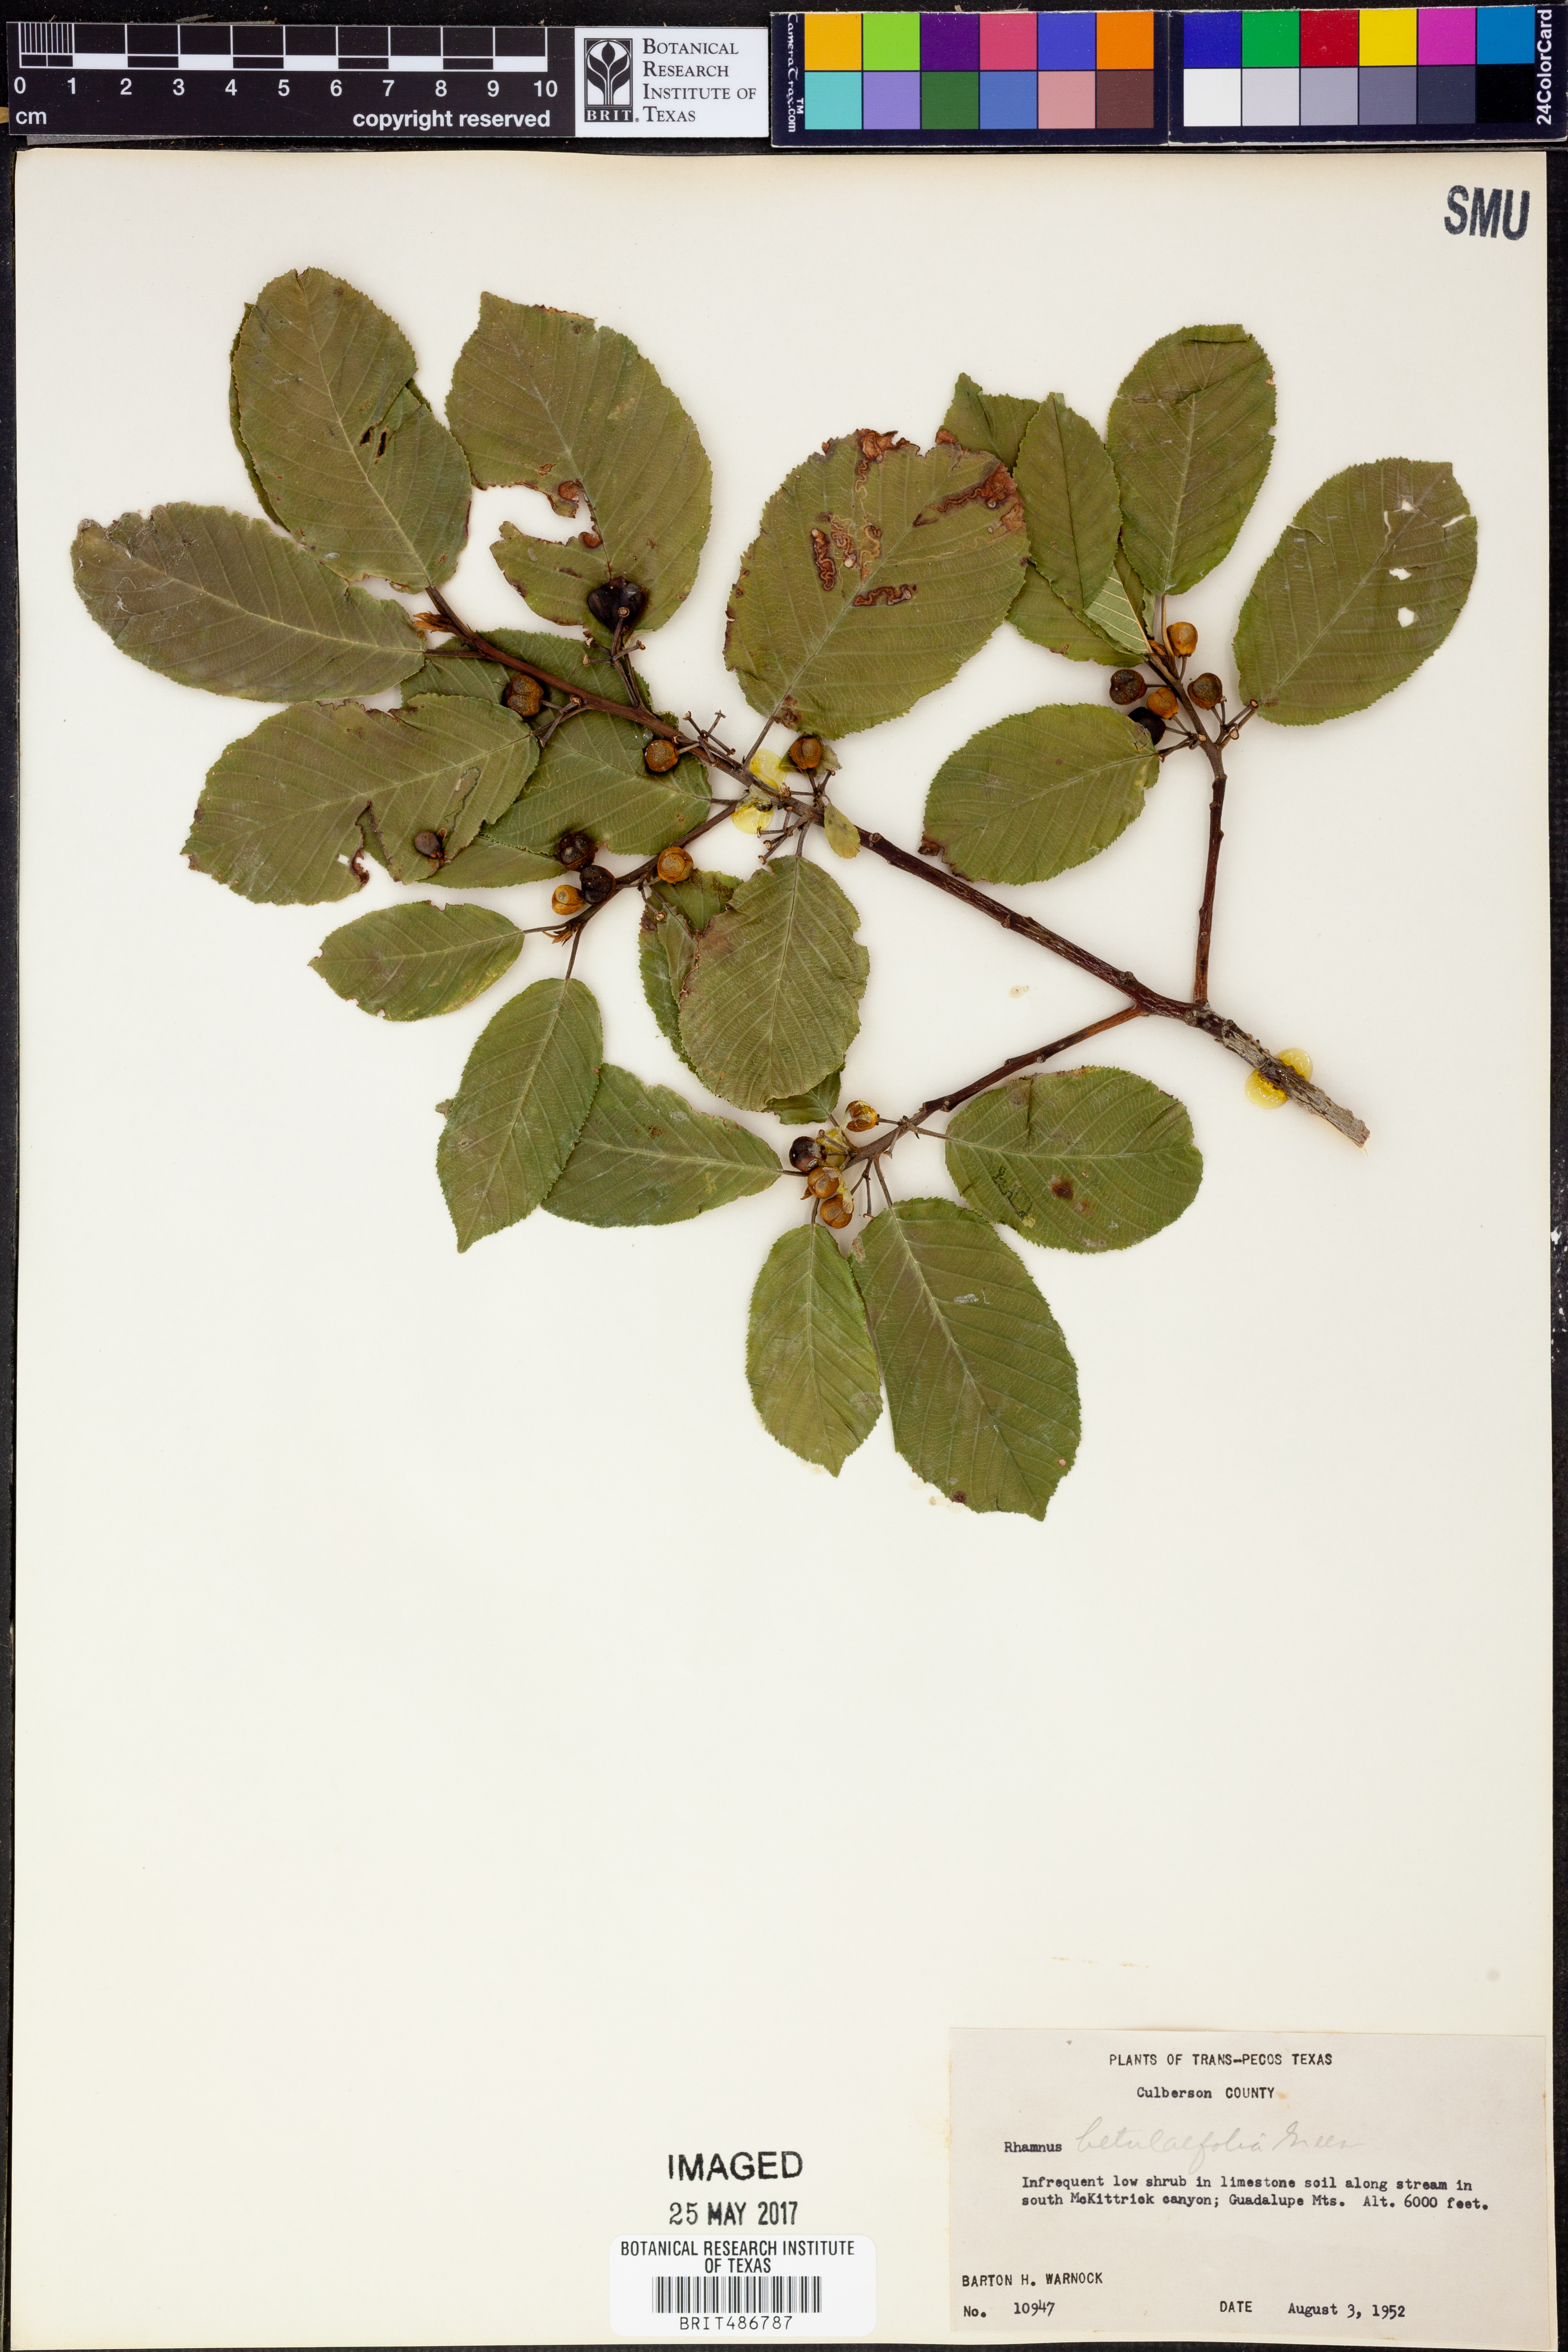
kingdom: Plantae
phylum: Tracheophyta
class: Magnoliopsida
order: Rosales
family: Rhamnaceae
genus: Frangula
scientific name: Frangula betulifolia
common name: Birch-leaf buckthorn
